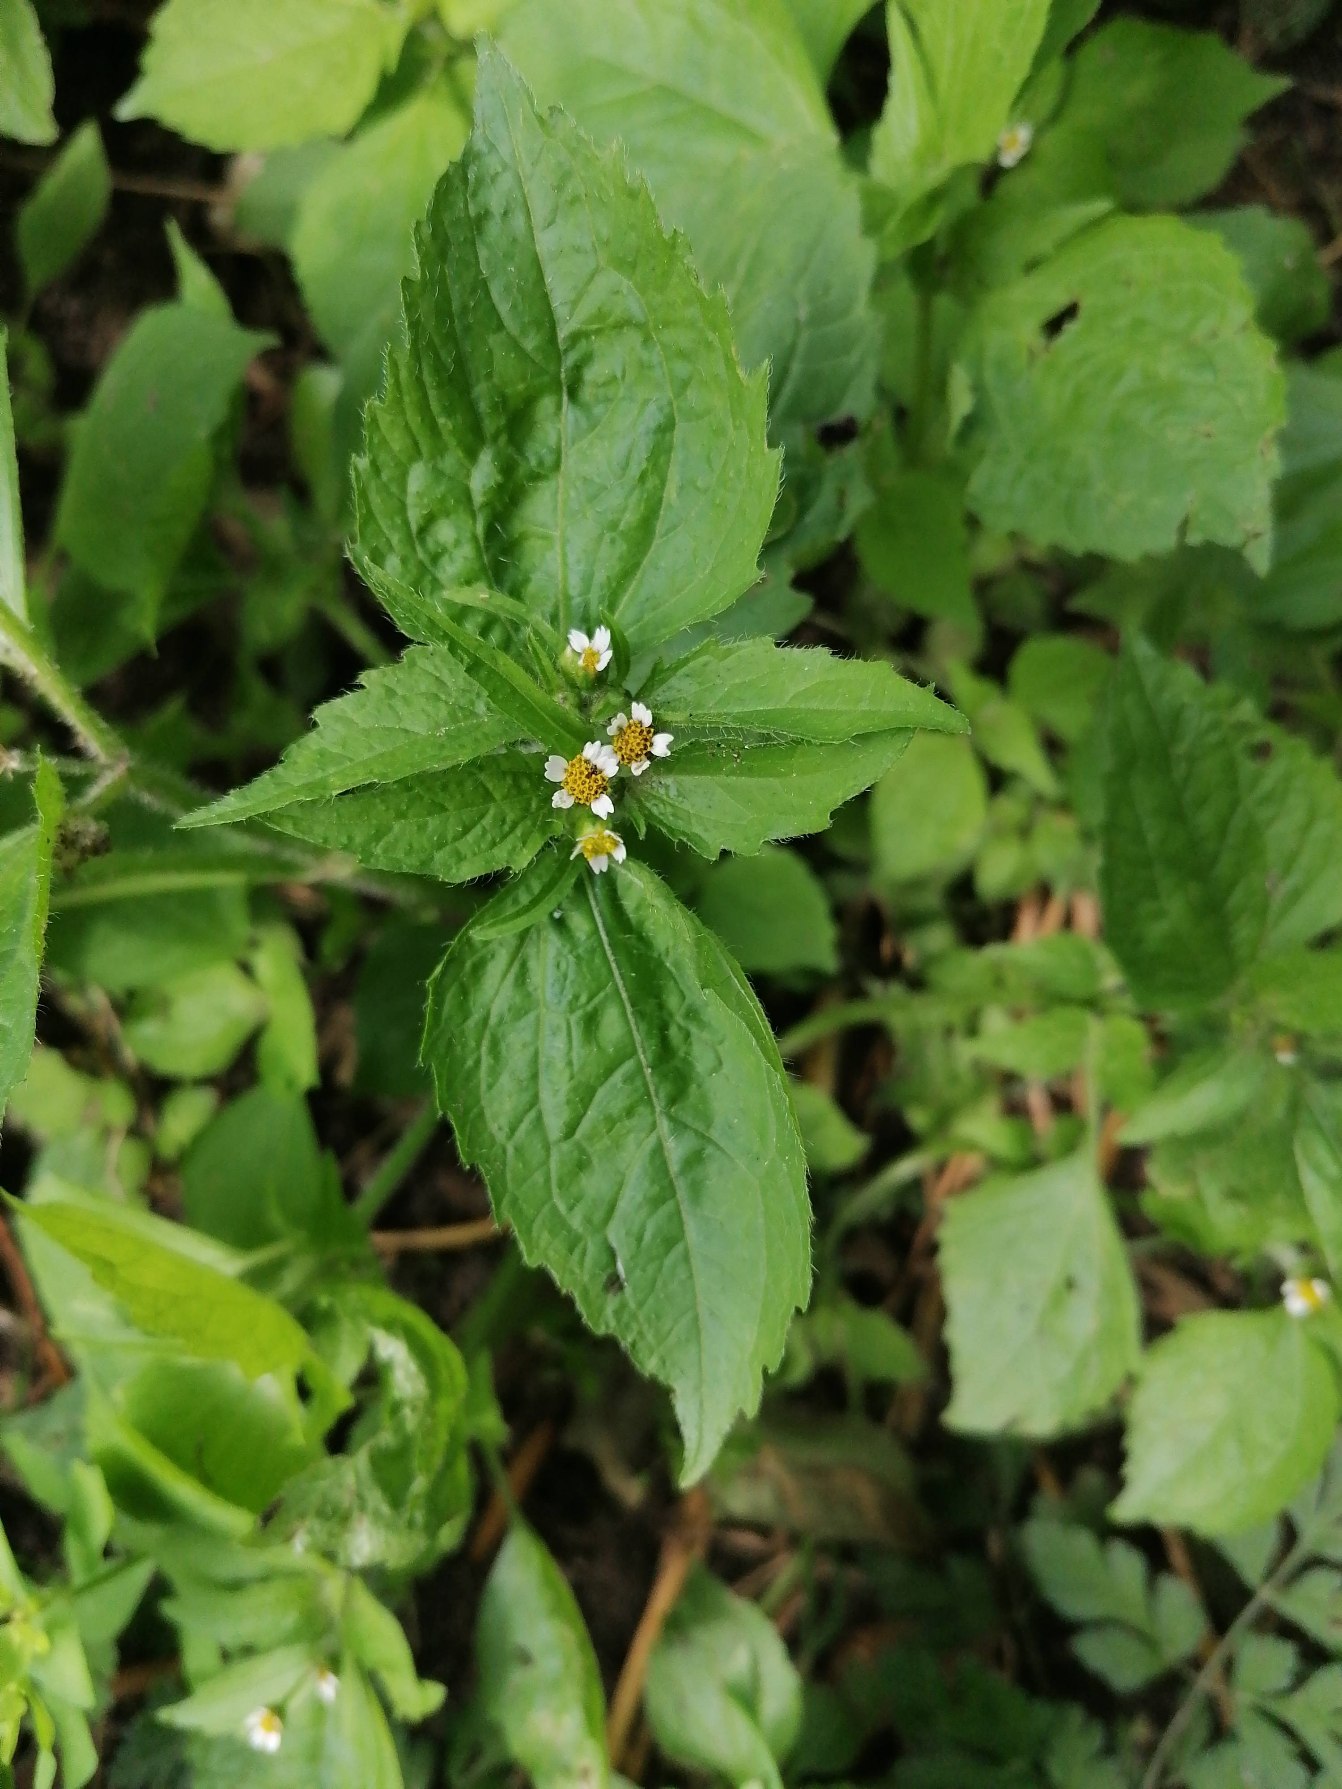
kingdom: Plantae
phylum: Tracheophyta
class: Magnoliopsida
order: Asterales
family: Asteraceae
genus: Galinsoga
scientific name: Galinsoga quadriradiata
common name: Kirtel-kortstråle
